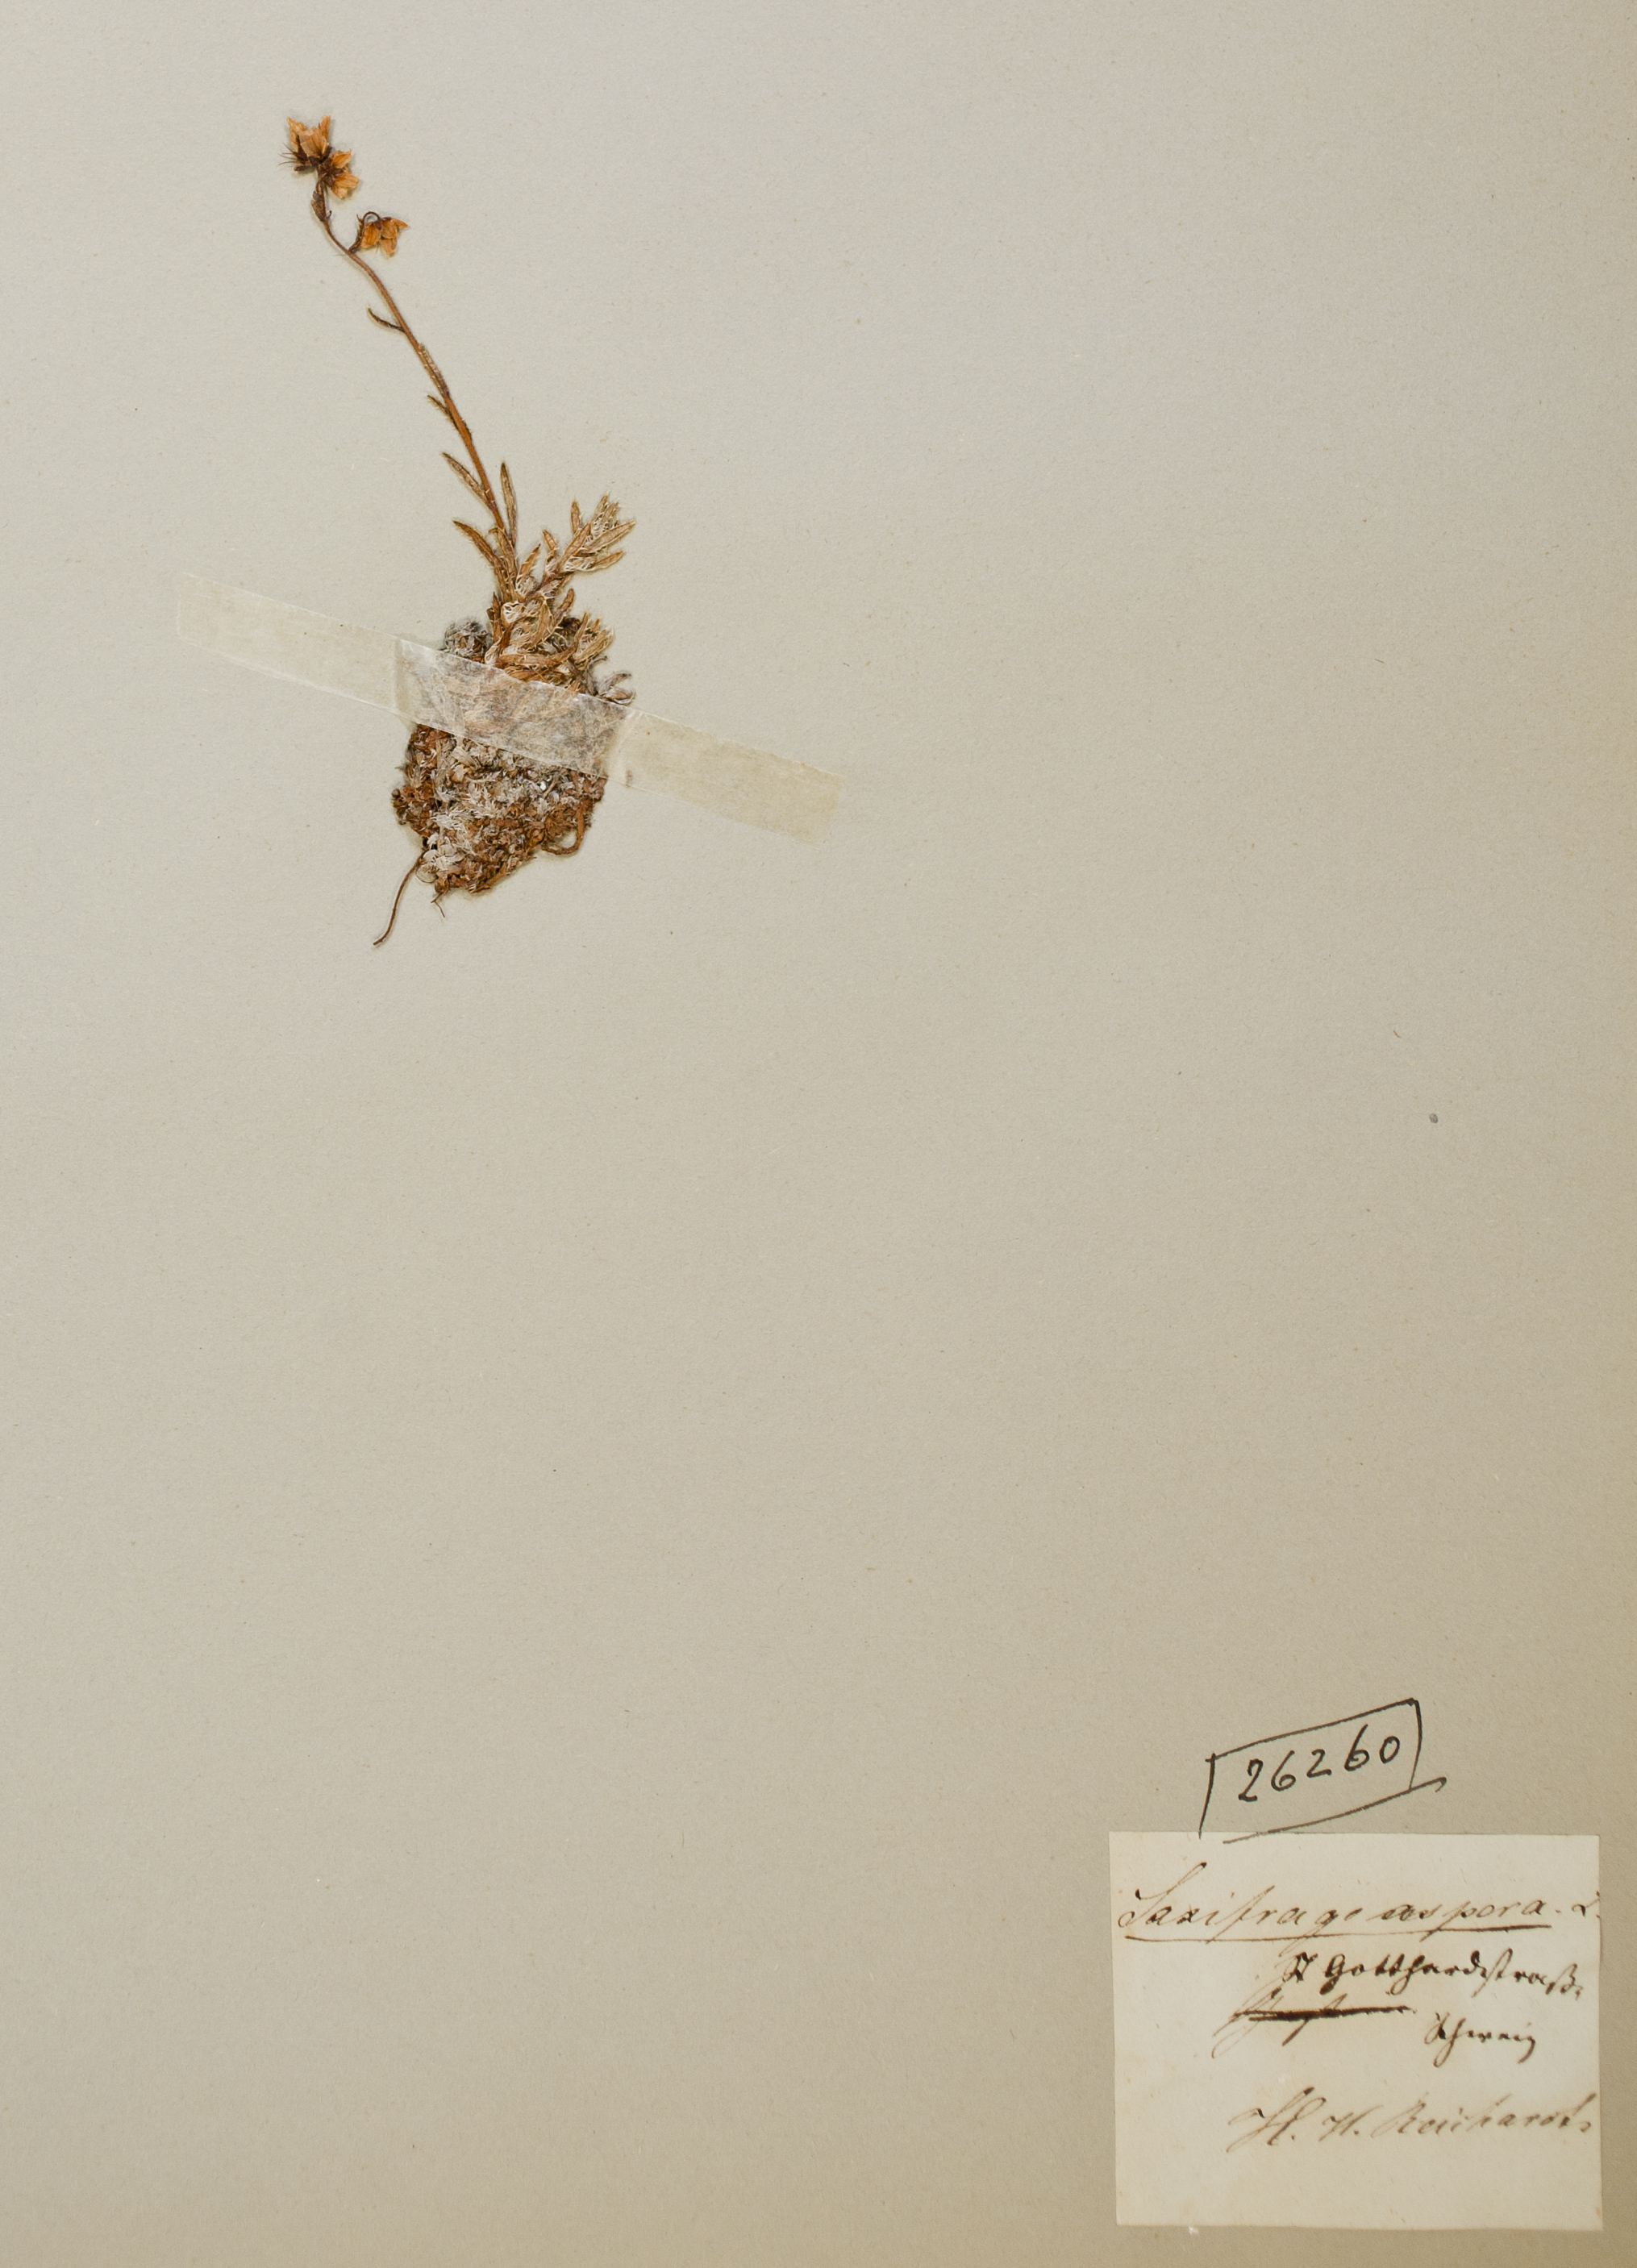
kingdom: Plantae
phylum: Tracheophyta
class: Magnoliopsida
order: Saxifragales
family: Saxifragaceae
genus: Saxifraga
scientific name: Saxifraga aspera
